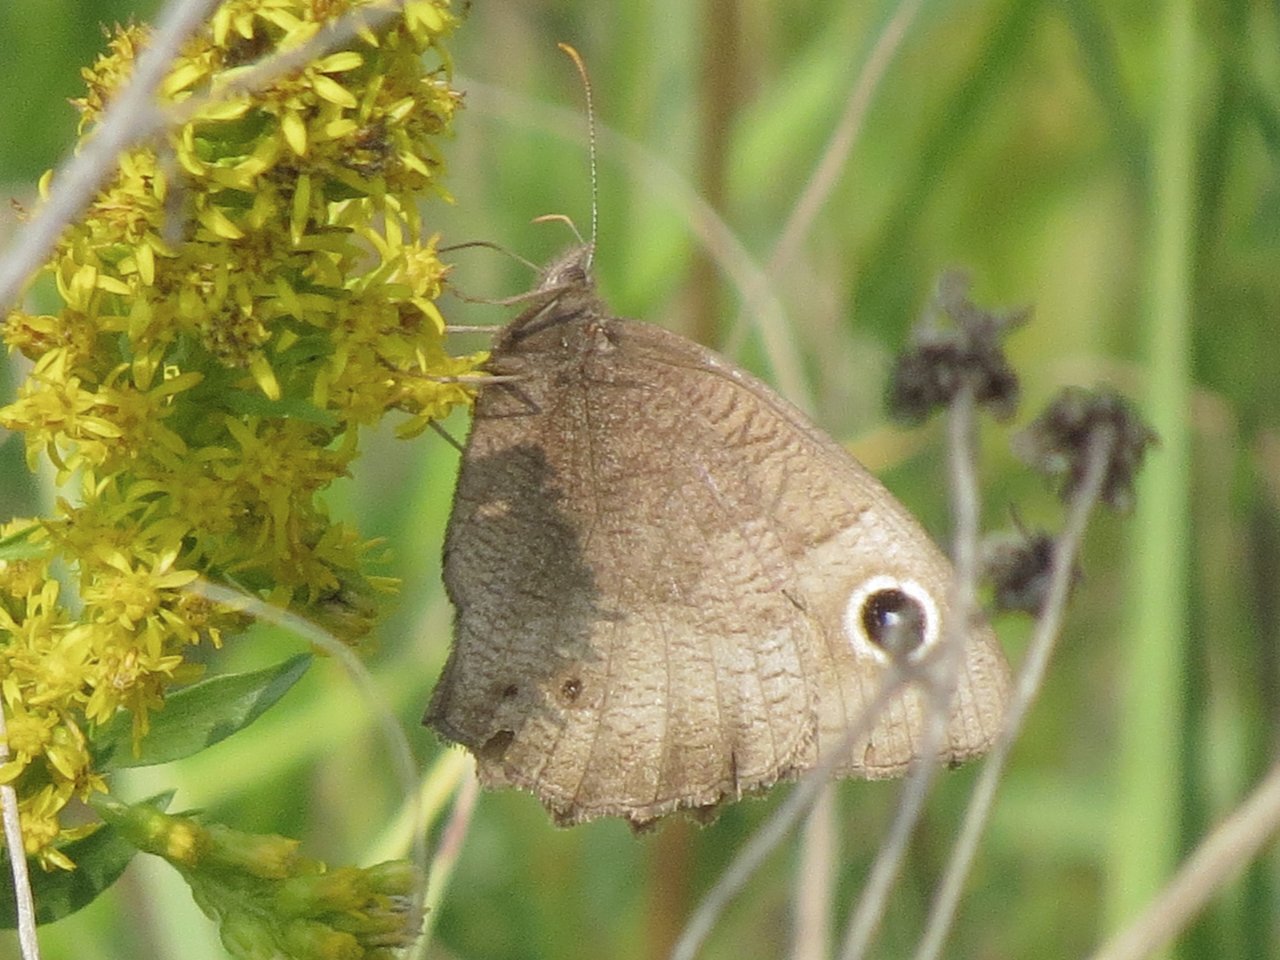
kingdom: Animalia
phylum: Arthropoda
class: Insecta
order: Lepidoptera
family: Nymphalidae
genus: Cercyonis
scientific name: Cercyonis pegala
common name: Common Wood-Nymph
